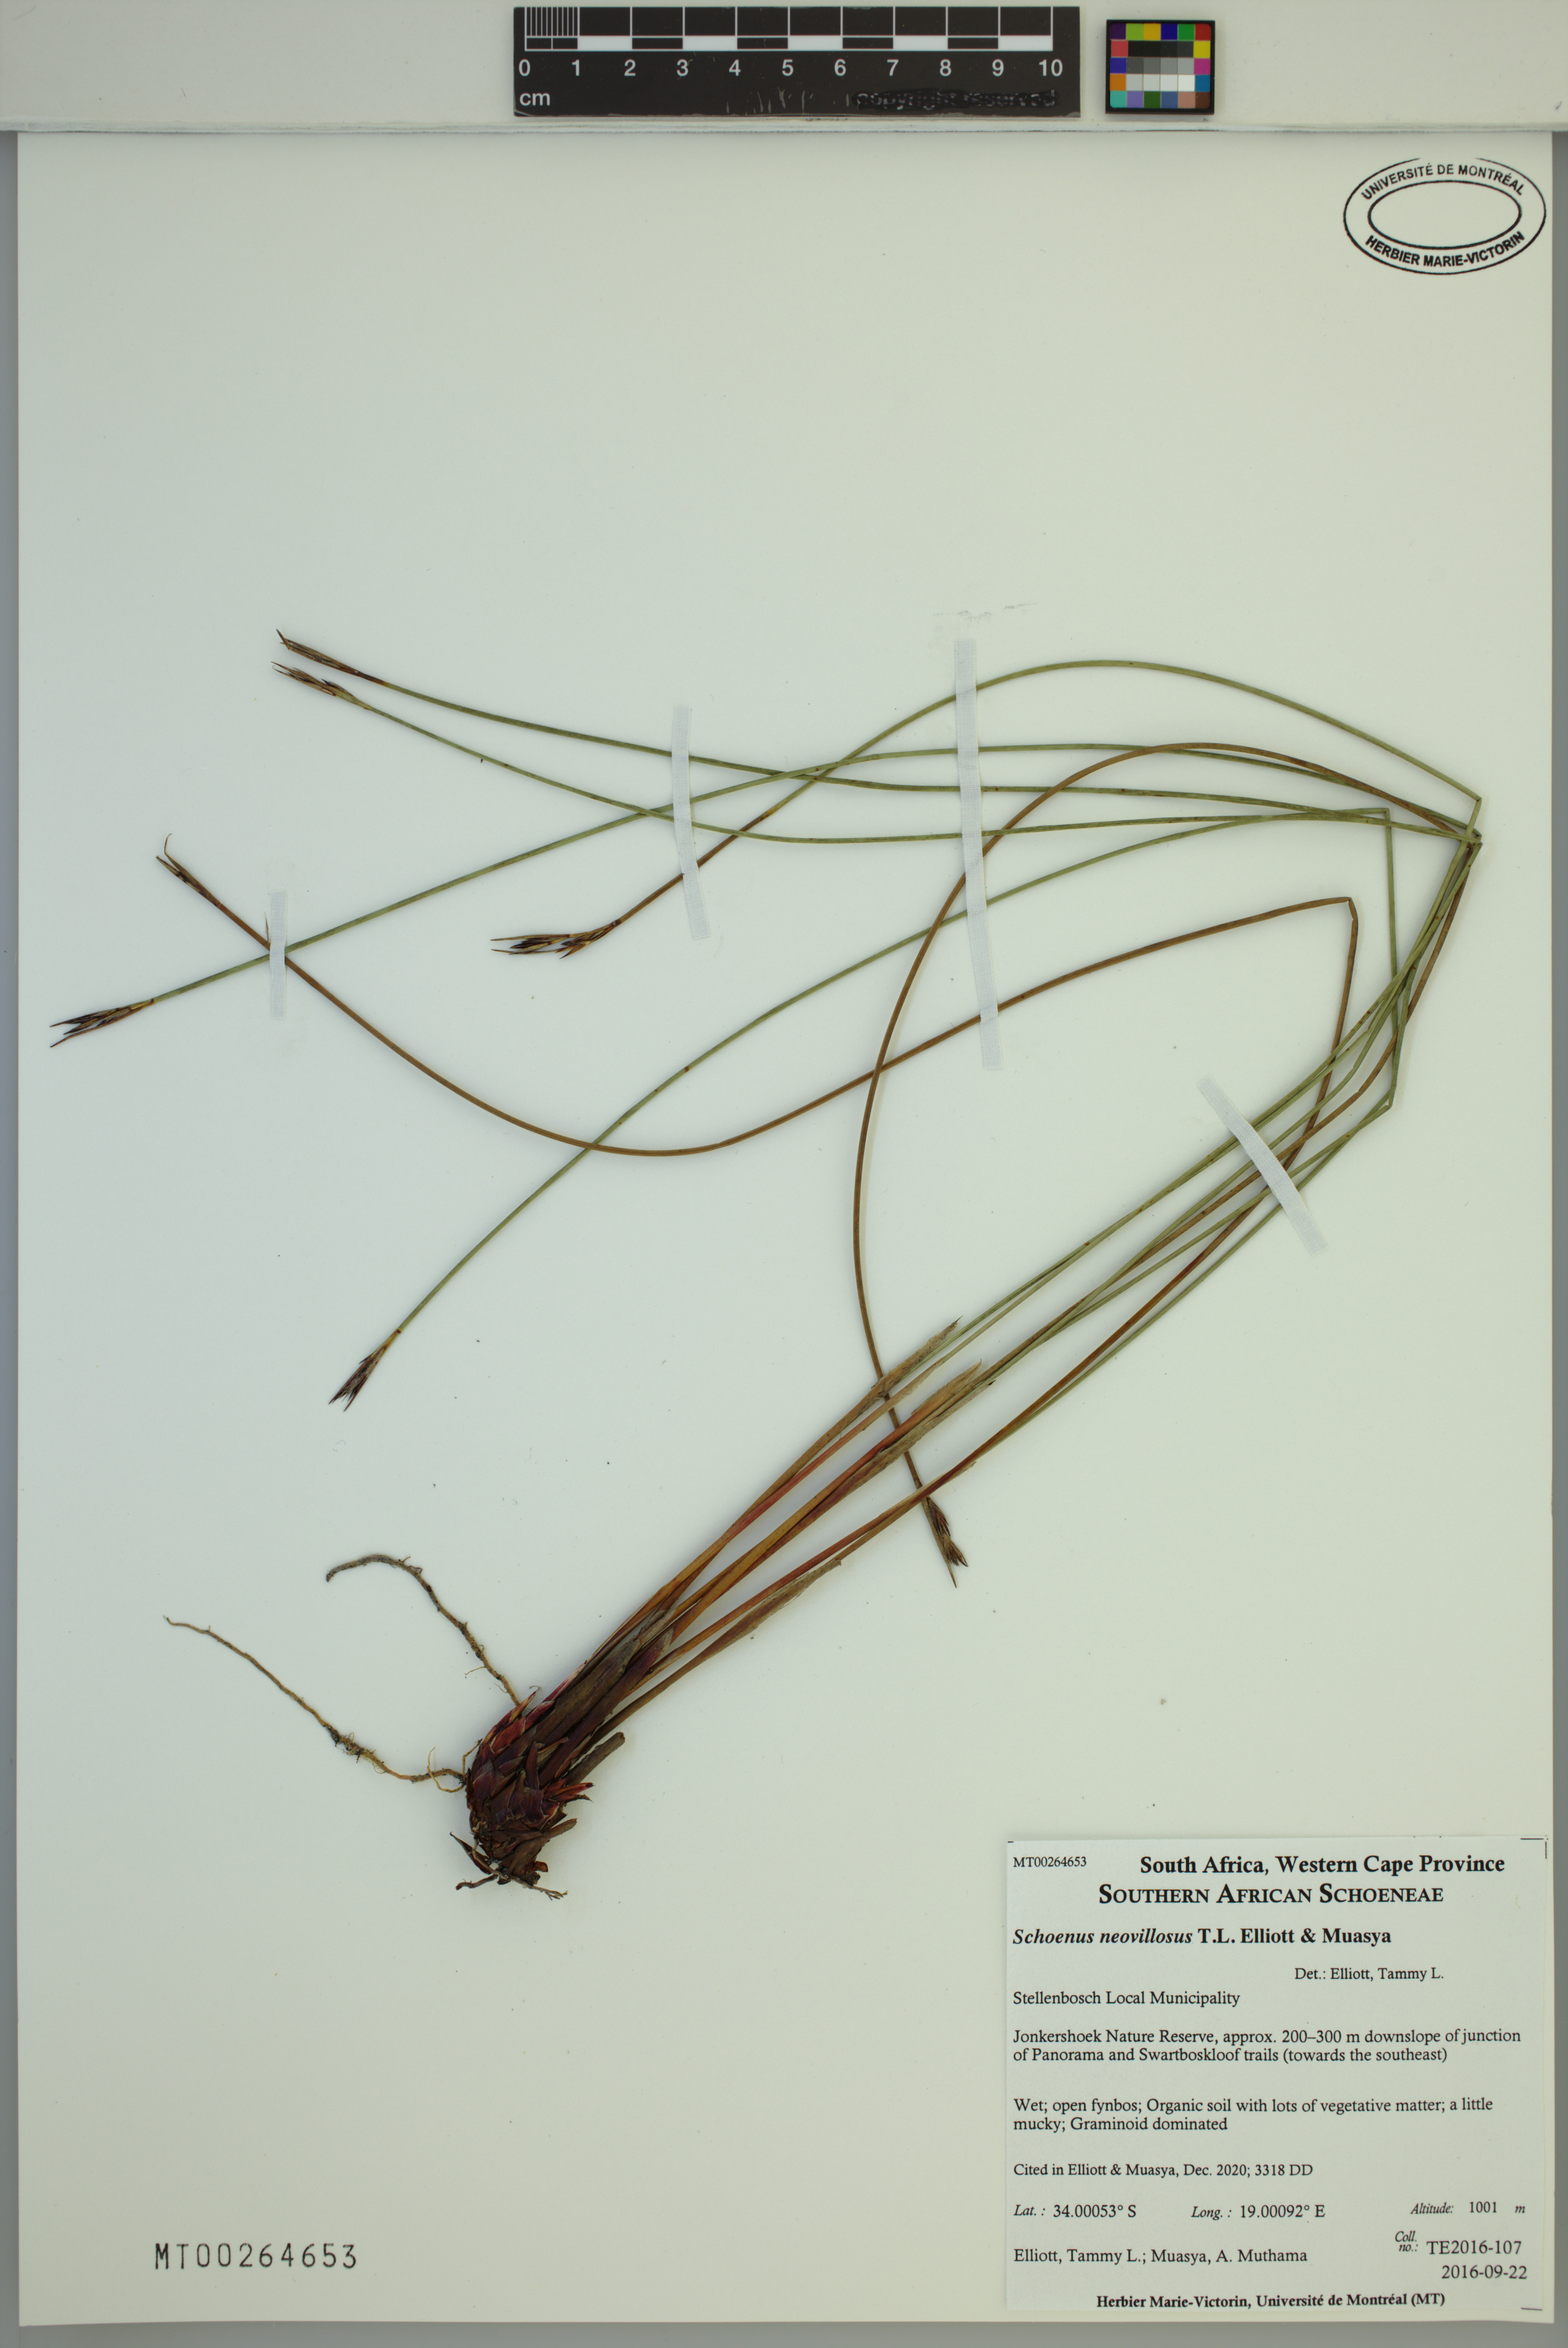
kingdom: Plantae
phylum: Tracheophyta
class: Liliopsida
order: Poales
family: Cyperaceae
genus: Schoenus
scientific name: Schoenus neovillosus
